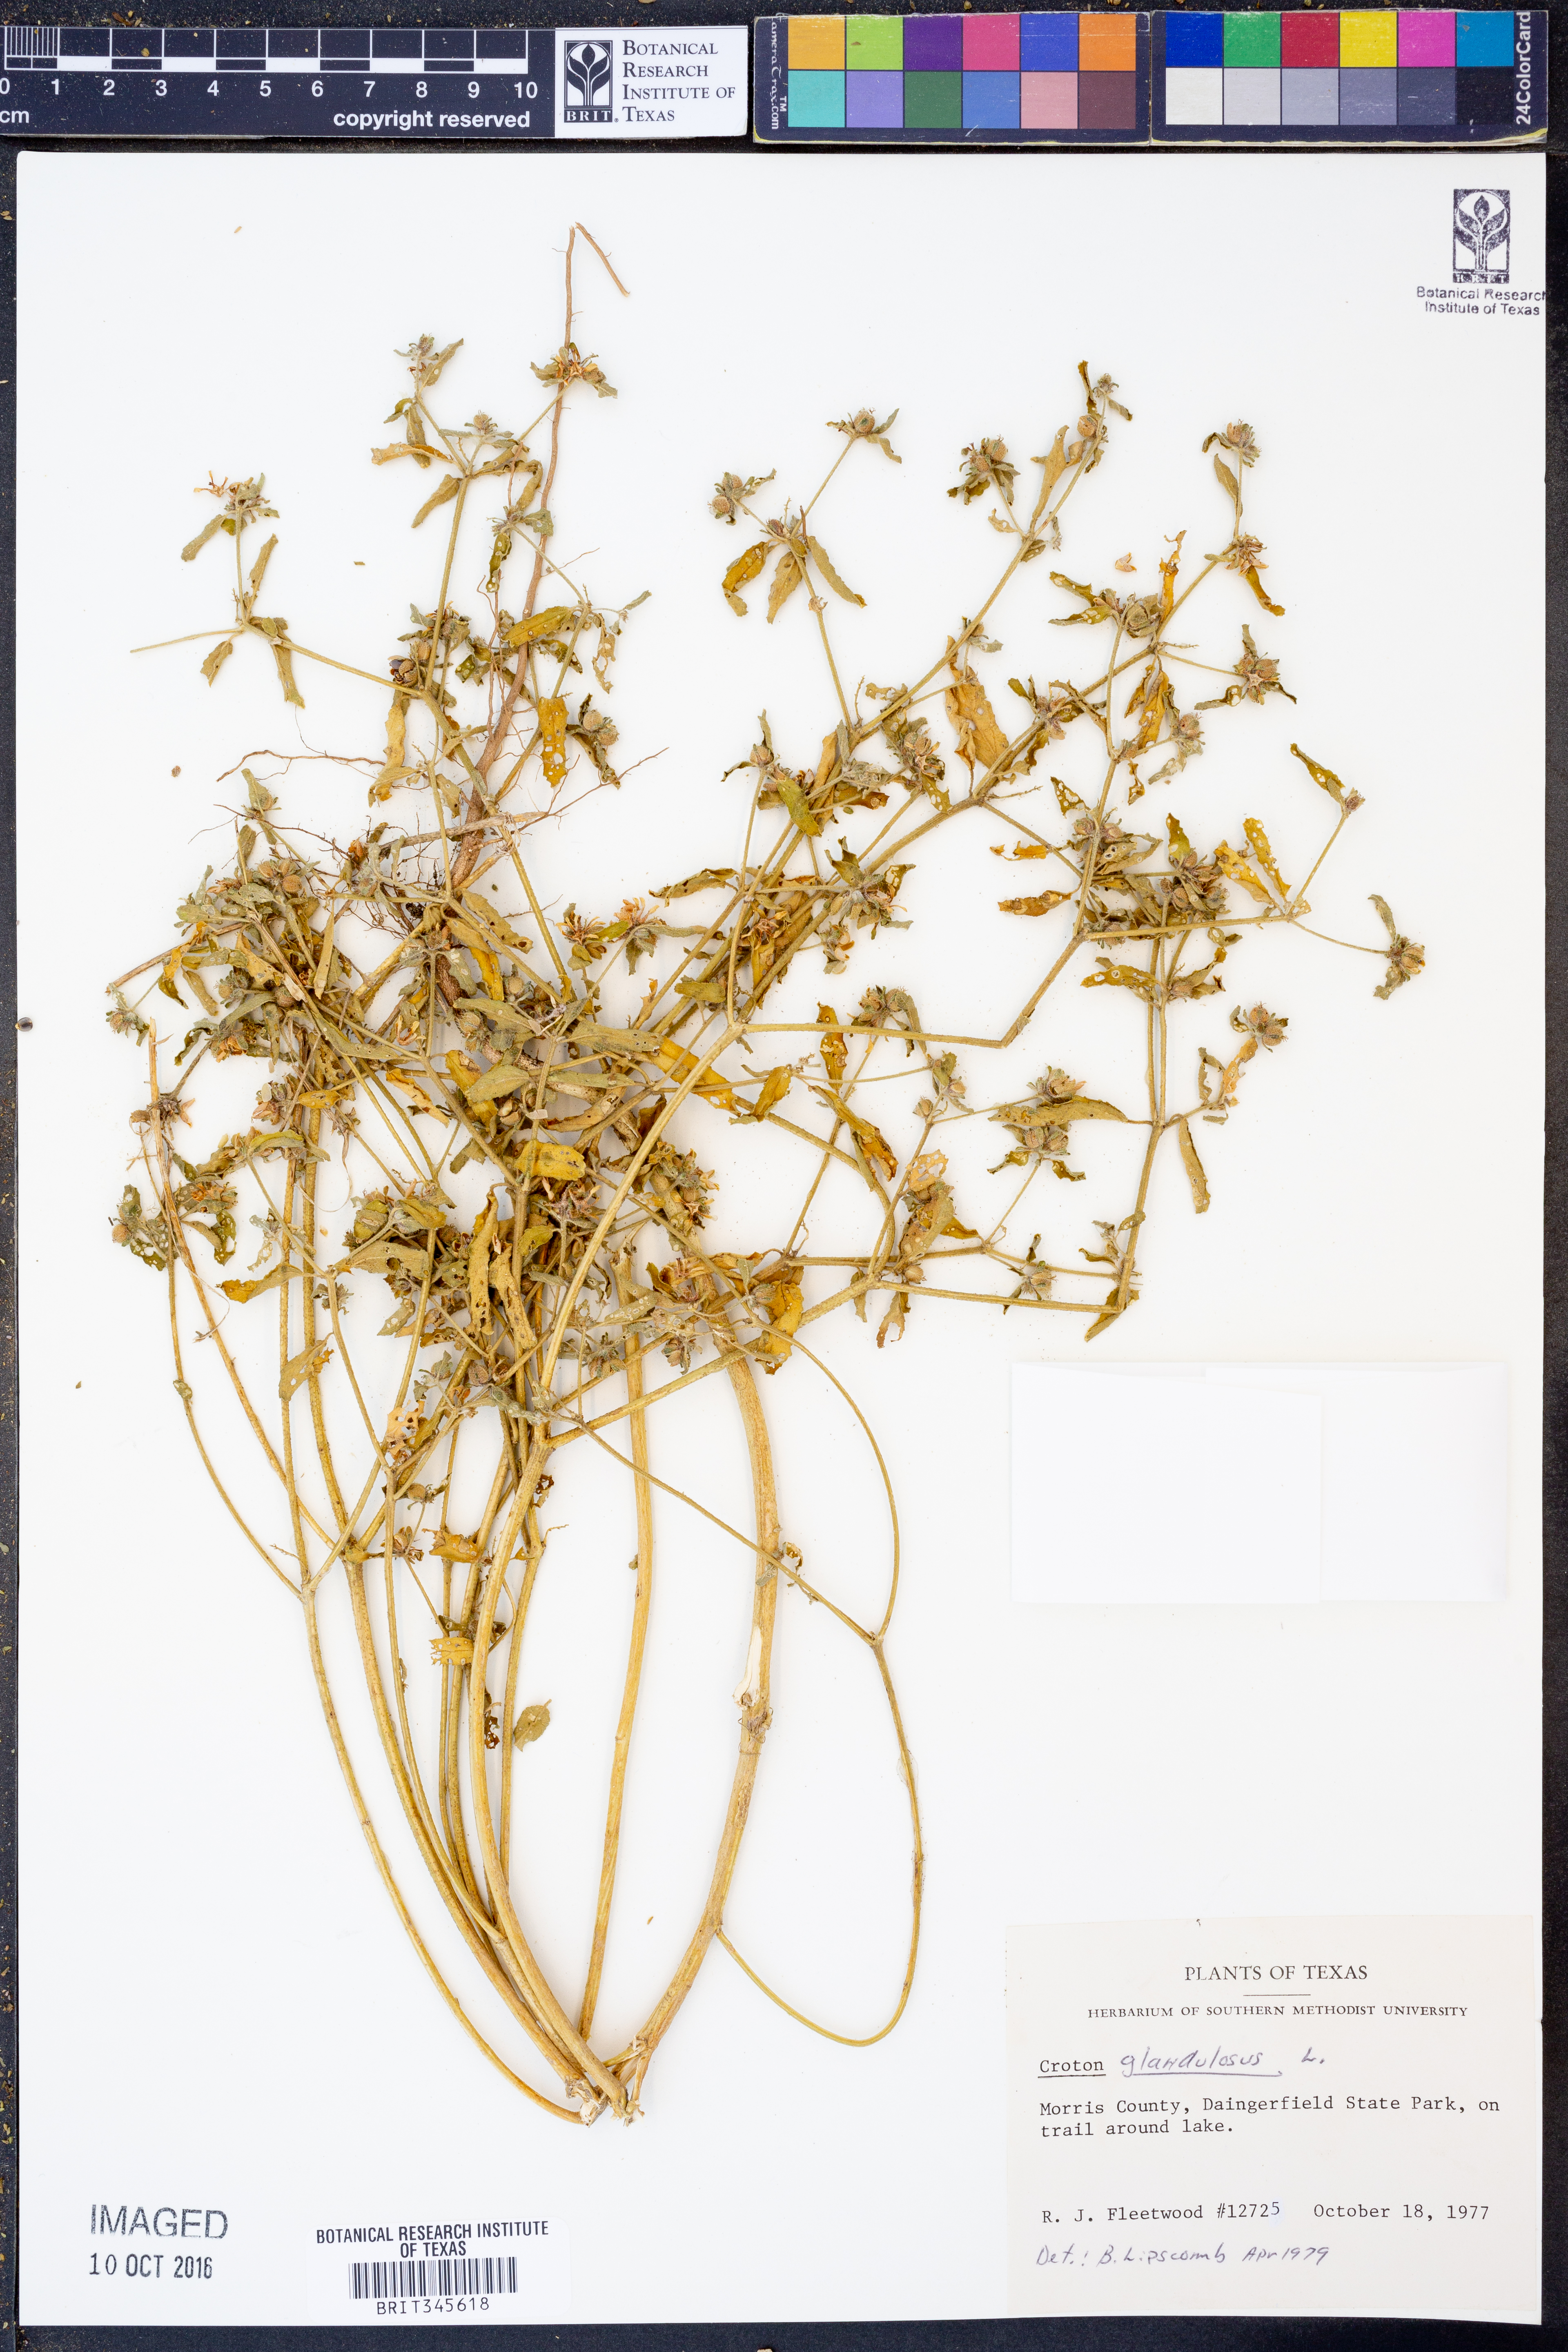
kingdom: Plantae
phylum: Tracheophyta
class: Magnoliopsida
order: Malpighiales
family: Euphorbiaceae
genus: Croton
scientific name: Croton glandulosus
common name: Tropic croton
